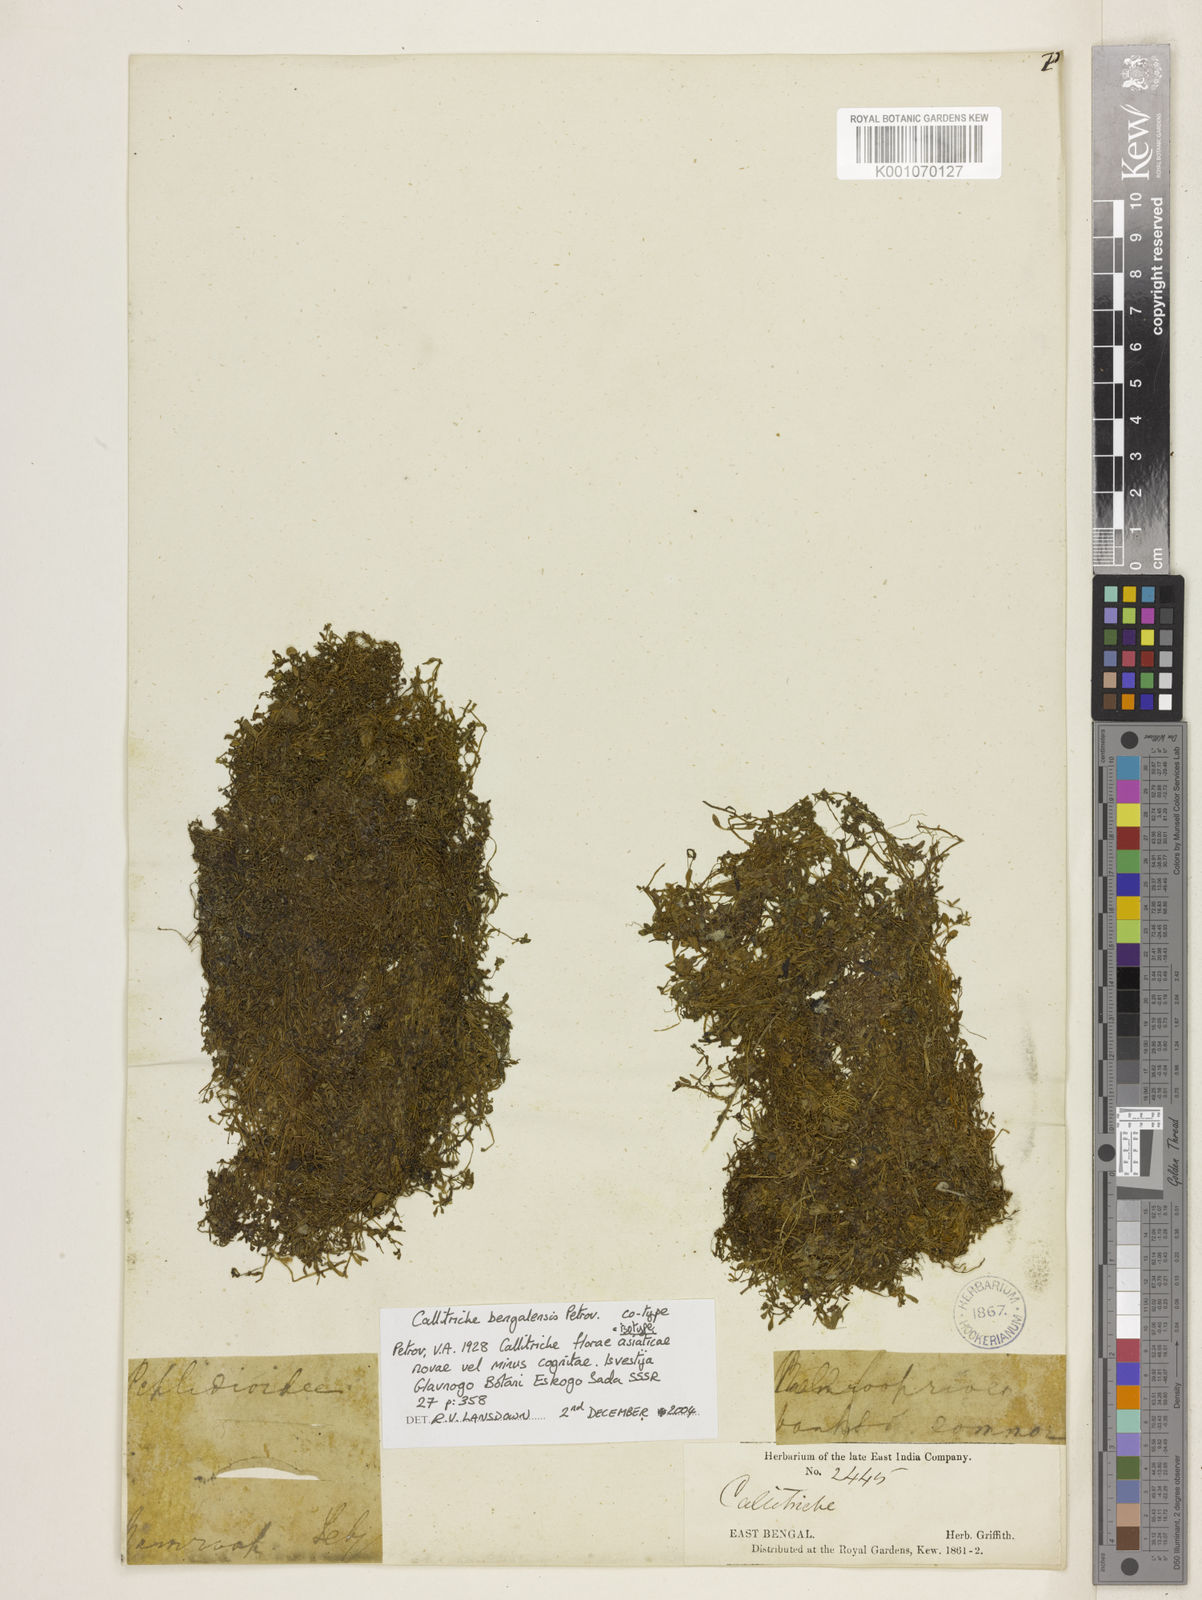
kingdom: Plantae
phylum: Tracheophyta
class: Magnoliopsida
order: Lamiales
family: Plantaginaceae
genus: Callitriche
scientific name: Callitriche palustris
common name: Spring water-starwort
